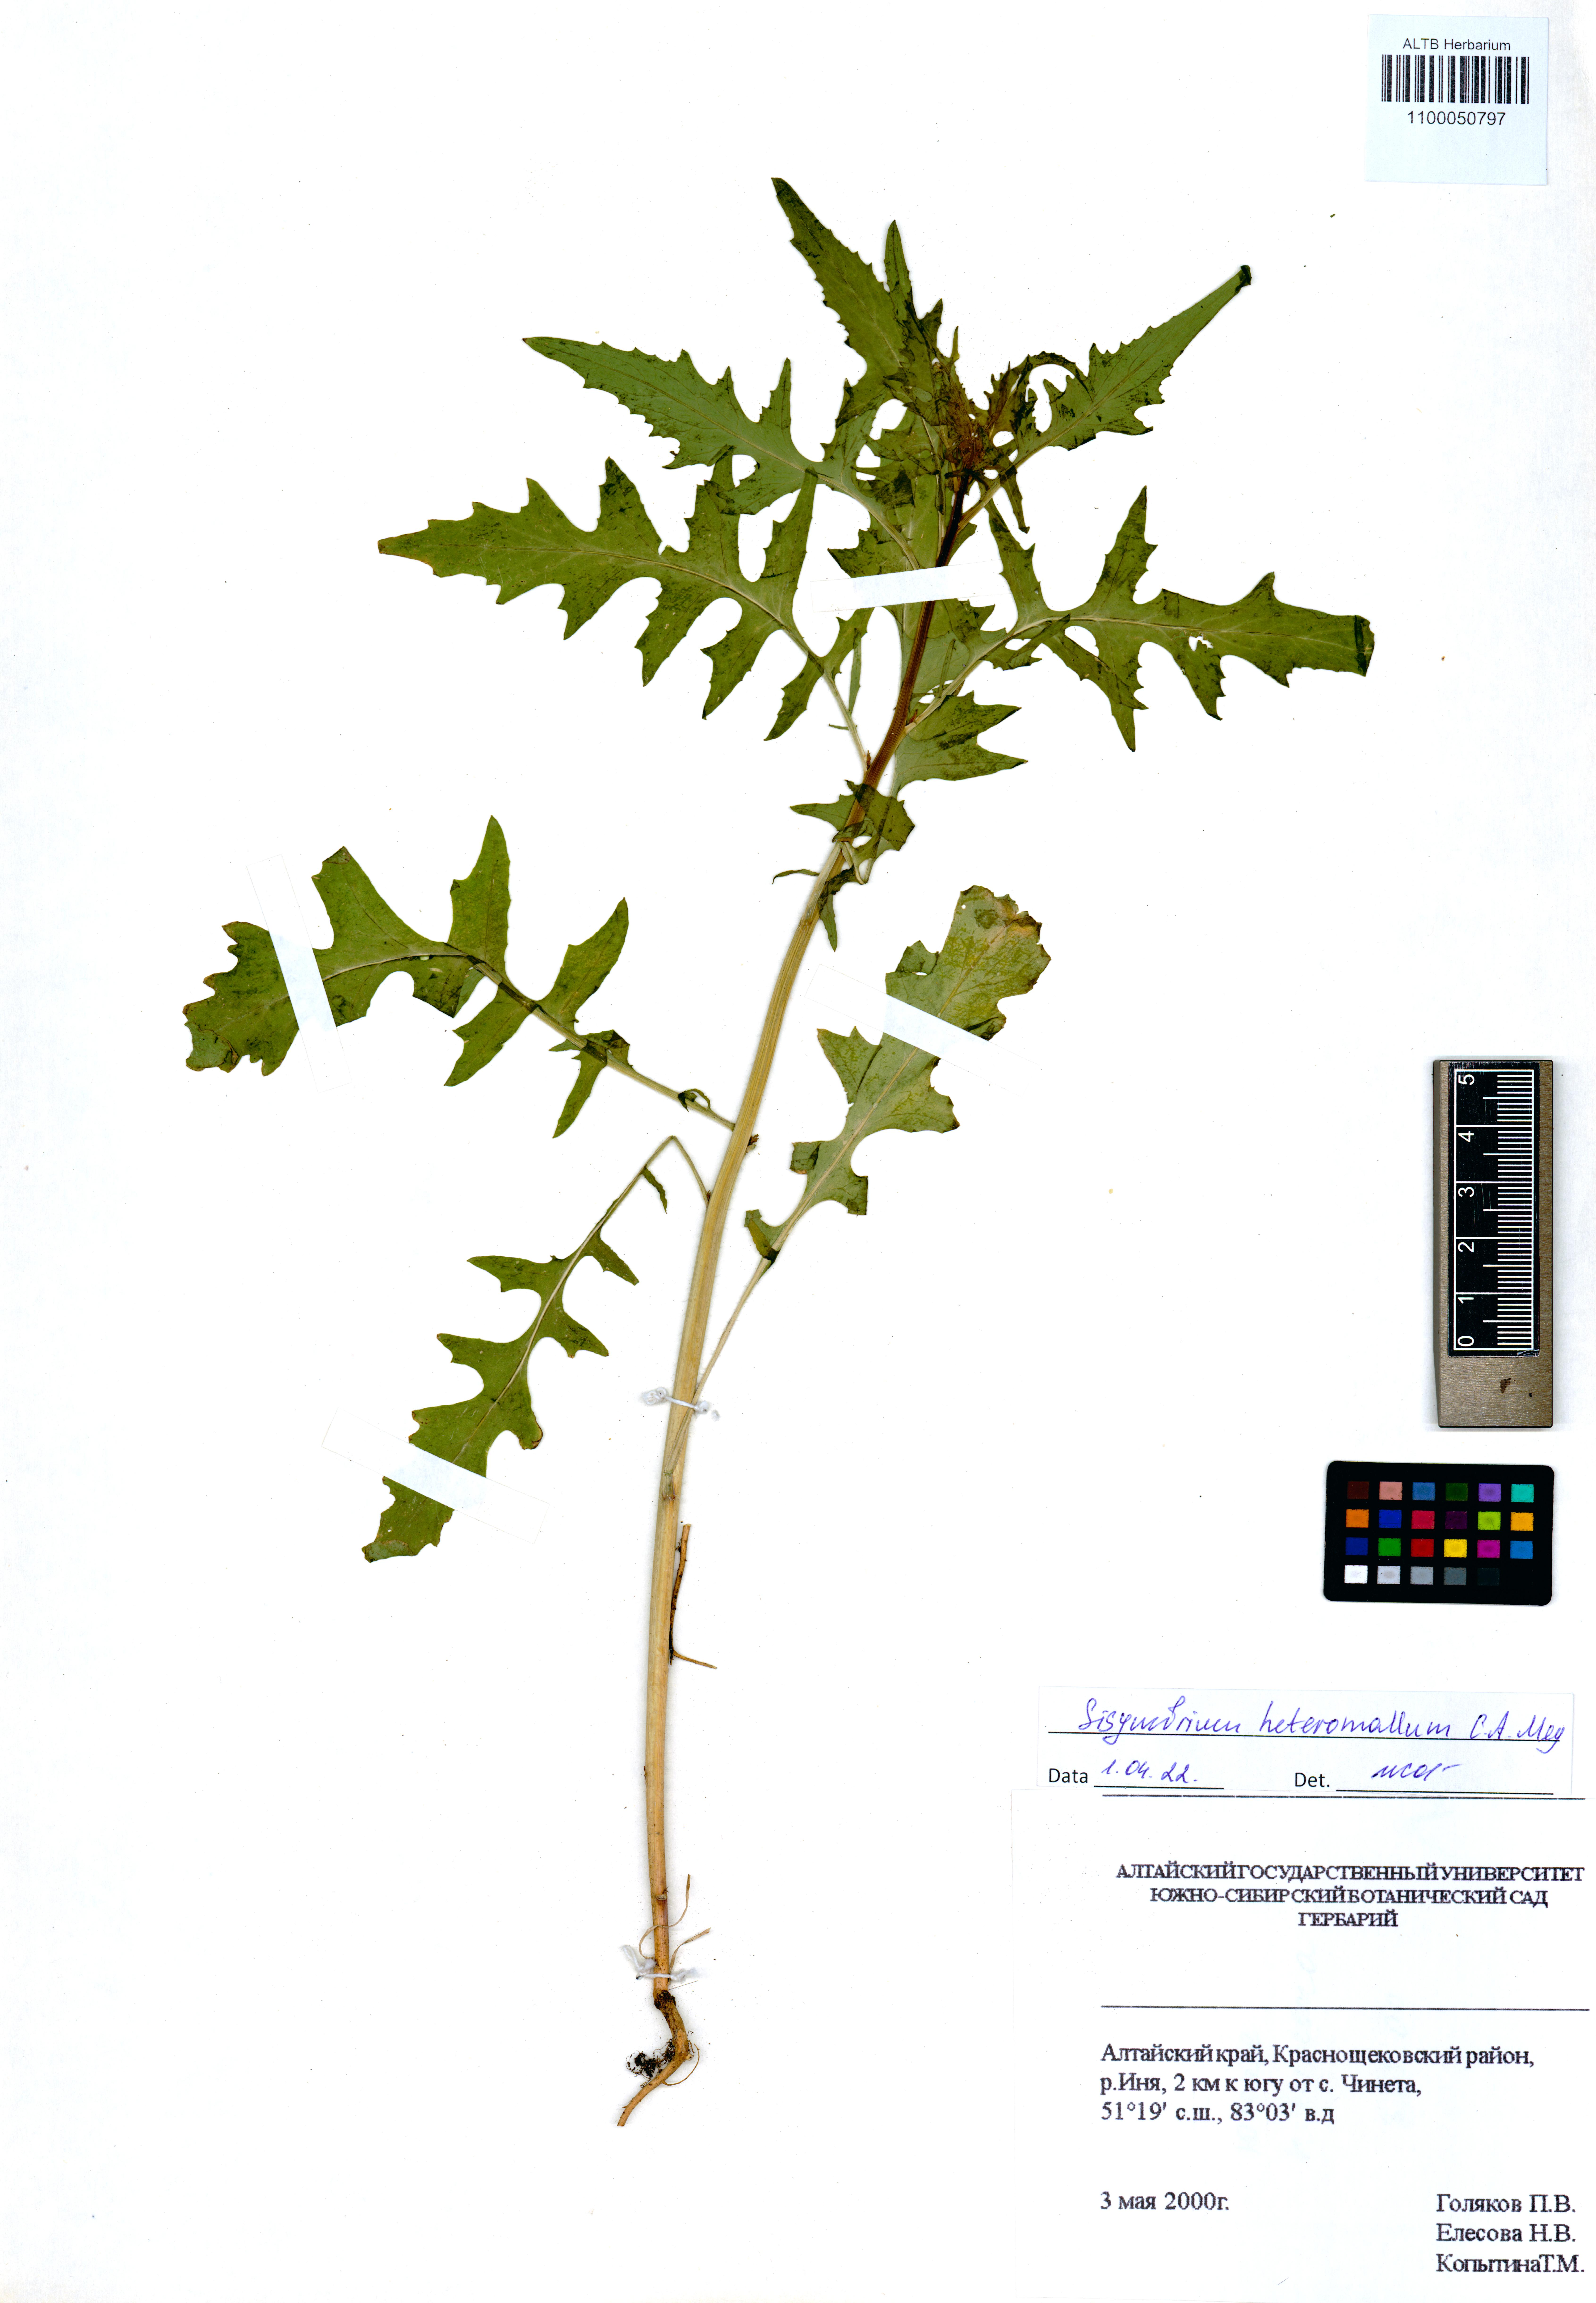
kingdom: Plantae
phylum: Tracheophyta
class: Magnoliopsida
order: Brassicales
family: Brassicaceae
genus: Sisymbrium
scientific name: Sisymbrium heteromallum
